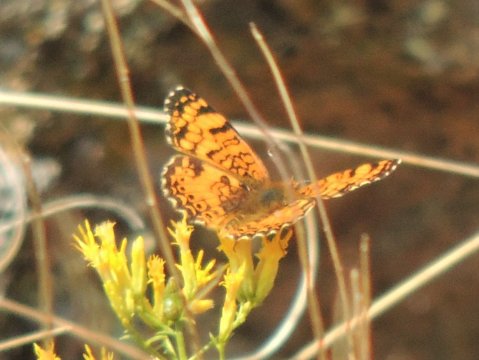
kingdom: Animalia
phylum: Arthropoda
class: Insecta
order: Lepidoptera
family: Nymphalidae
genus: Eresia
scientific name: Eresia aveyrona
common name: Mylitta Crescent
